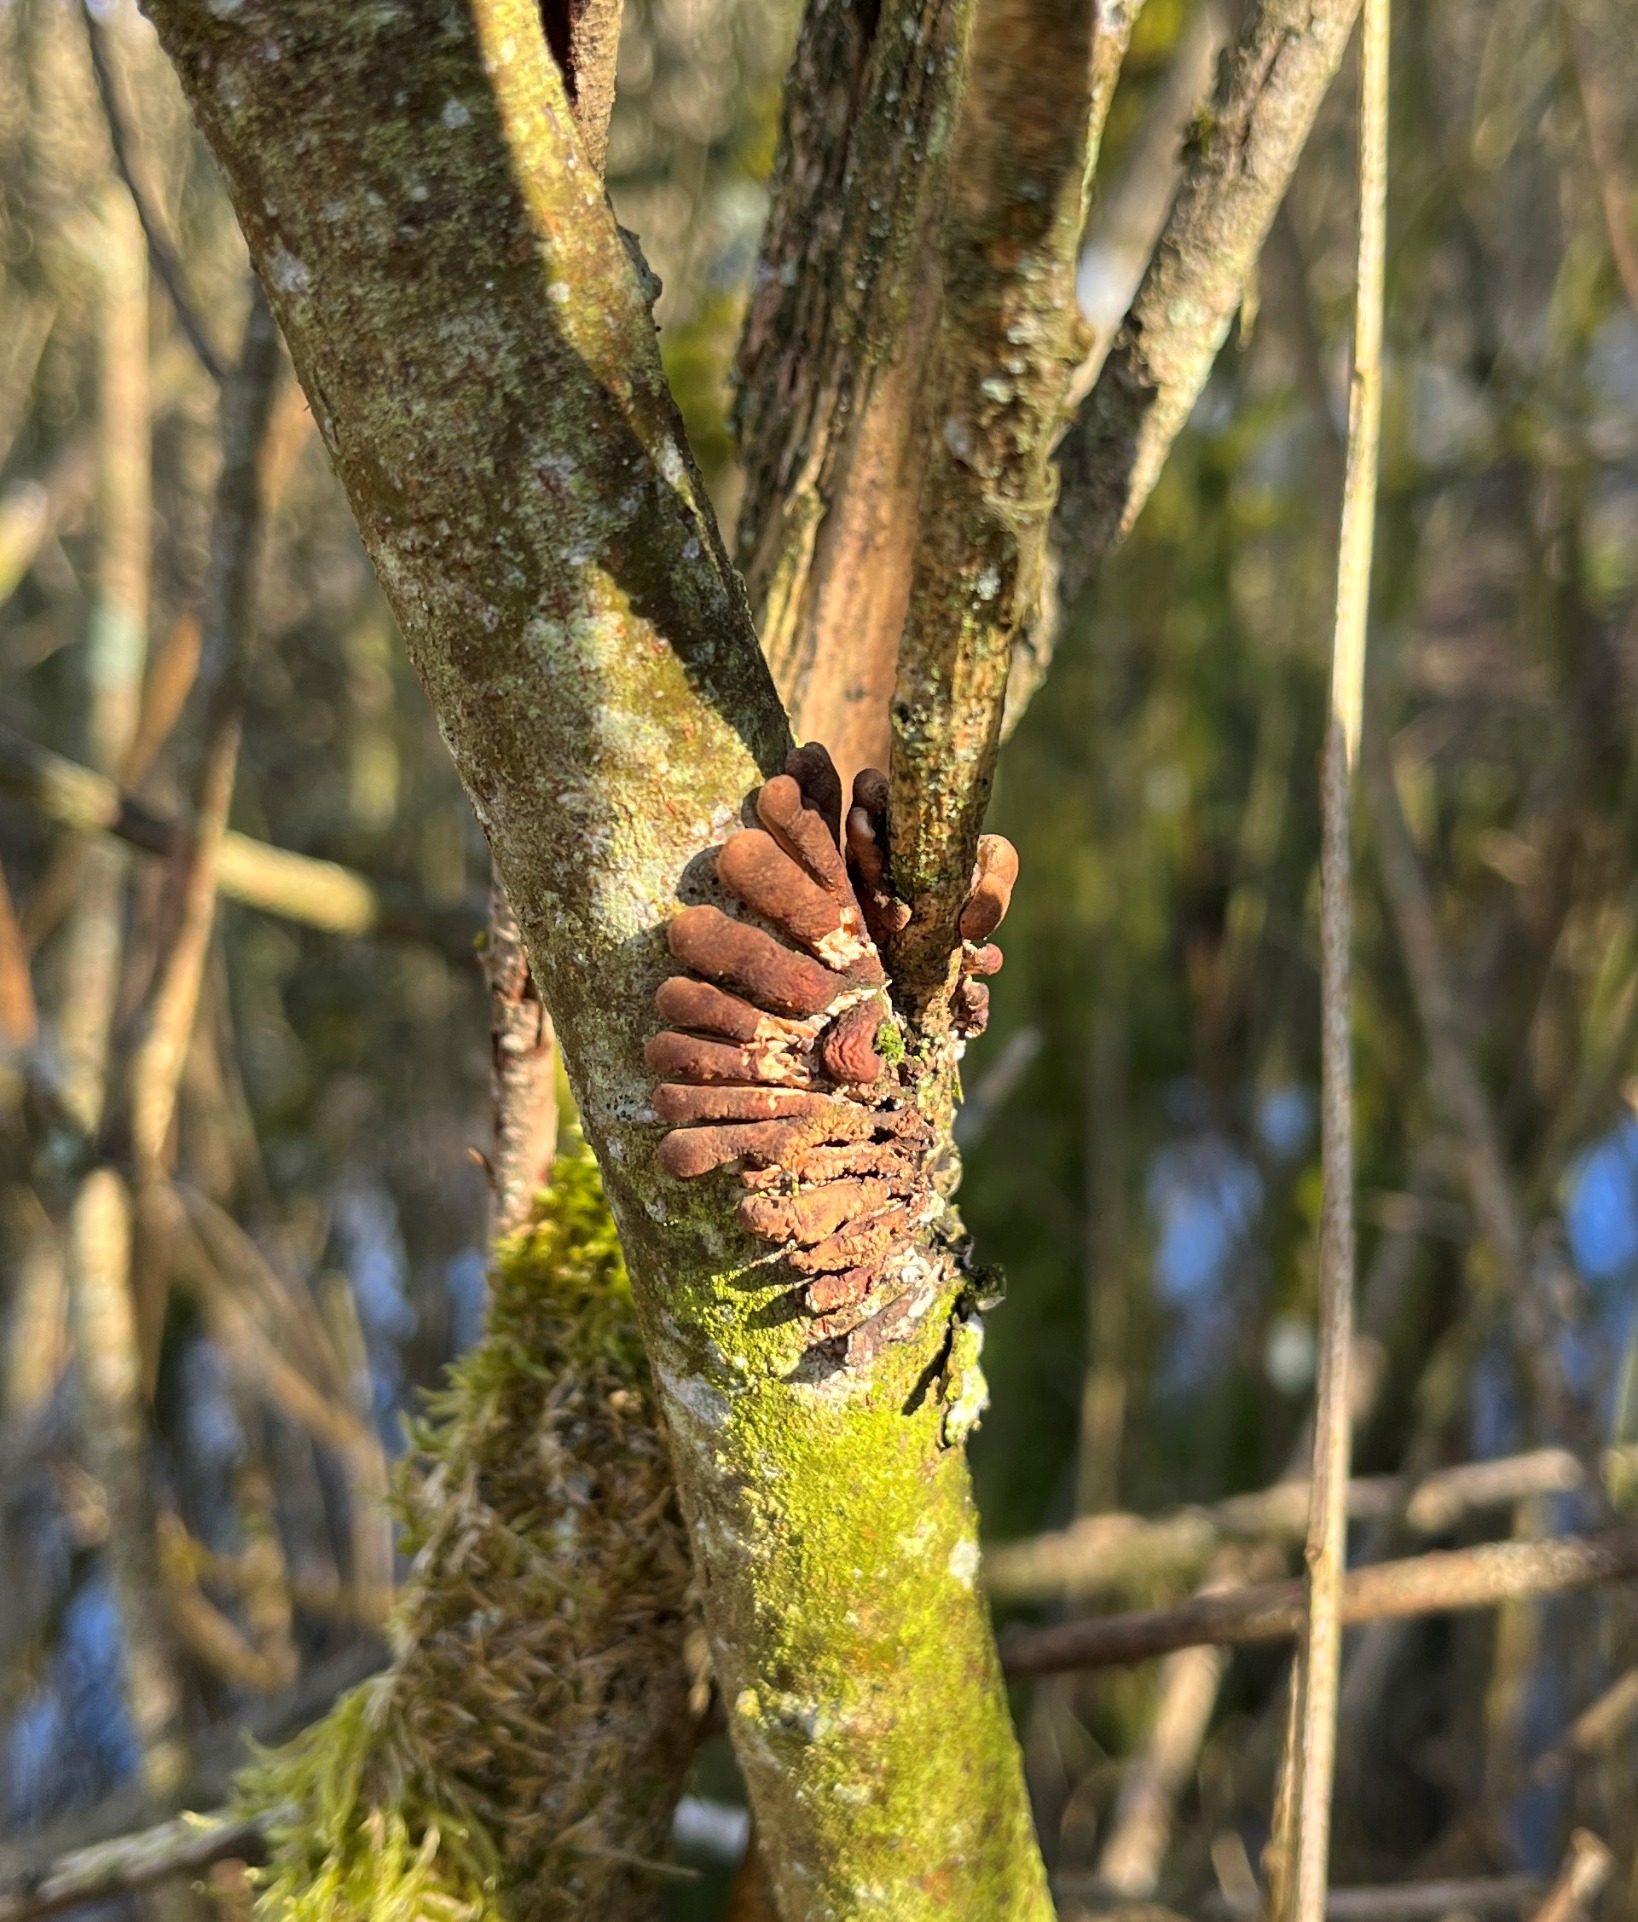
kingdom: Fungi
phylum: Ascomycota
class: Sordariomycetes
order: Hypocreales
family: Hypocreaceae
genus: Hypocreopsis
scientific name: Hypocreopsis lichenoides
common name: Pilfinger
